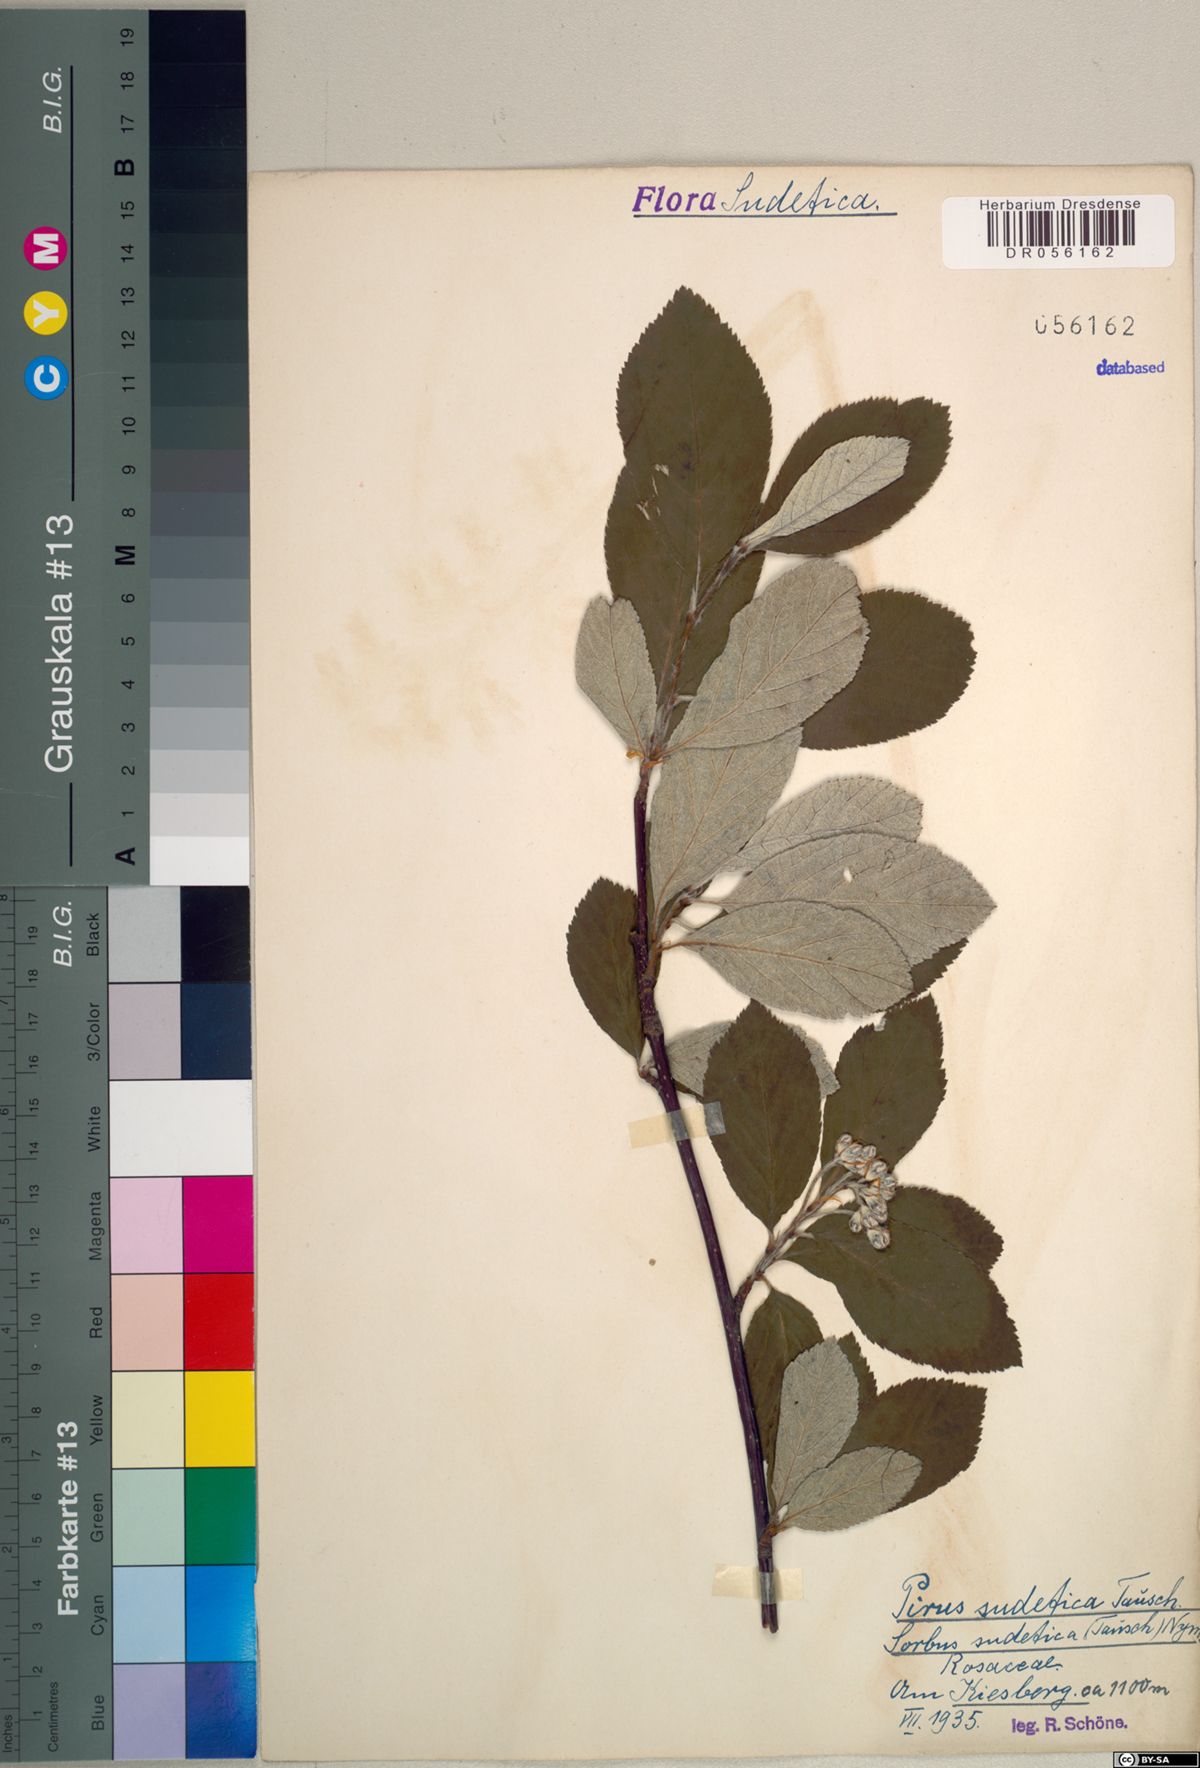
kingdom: Plantae
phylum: Tracheophyta
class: Magnoliopsida
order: Rosales
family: Rosaceae
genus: Majovskya
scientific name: Majovskya sudetica
